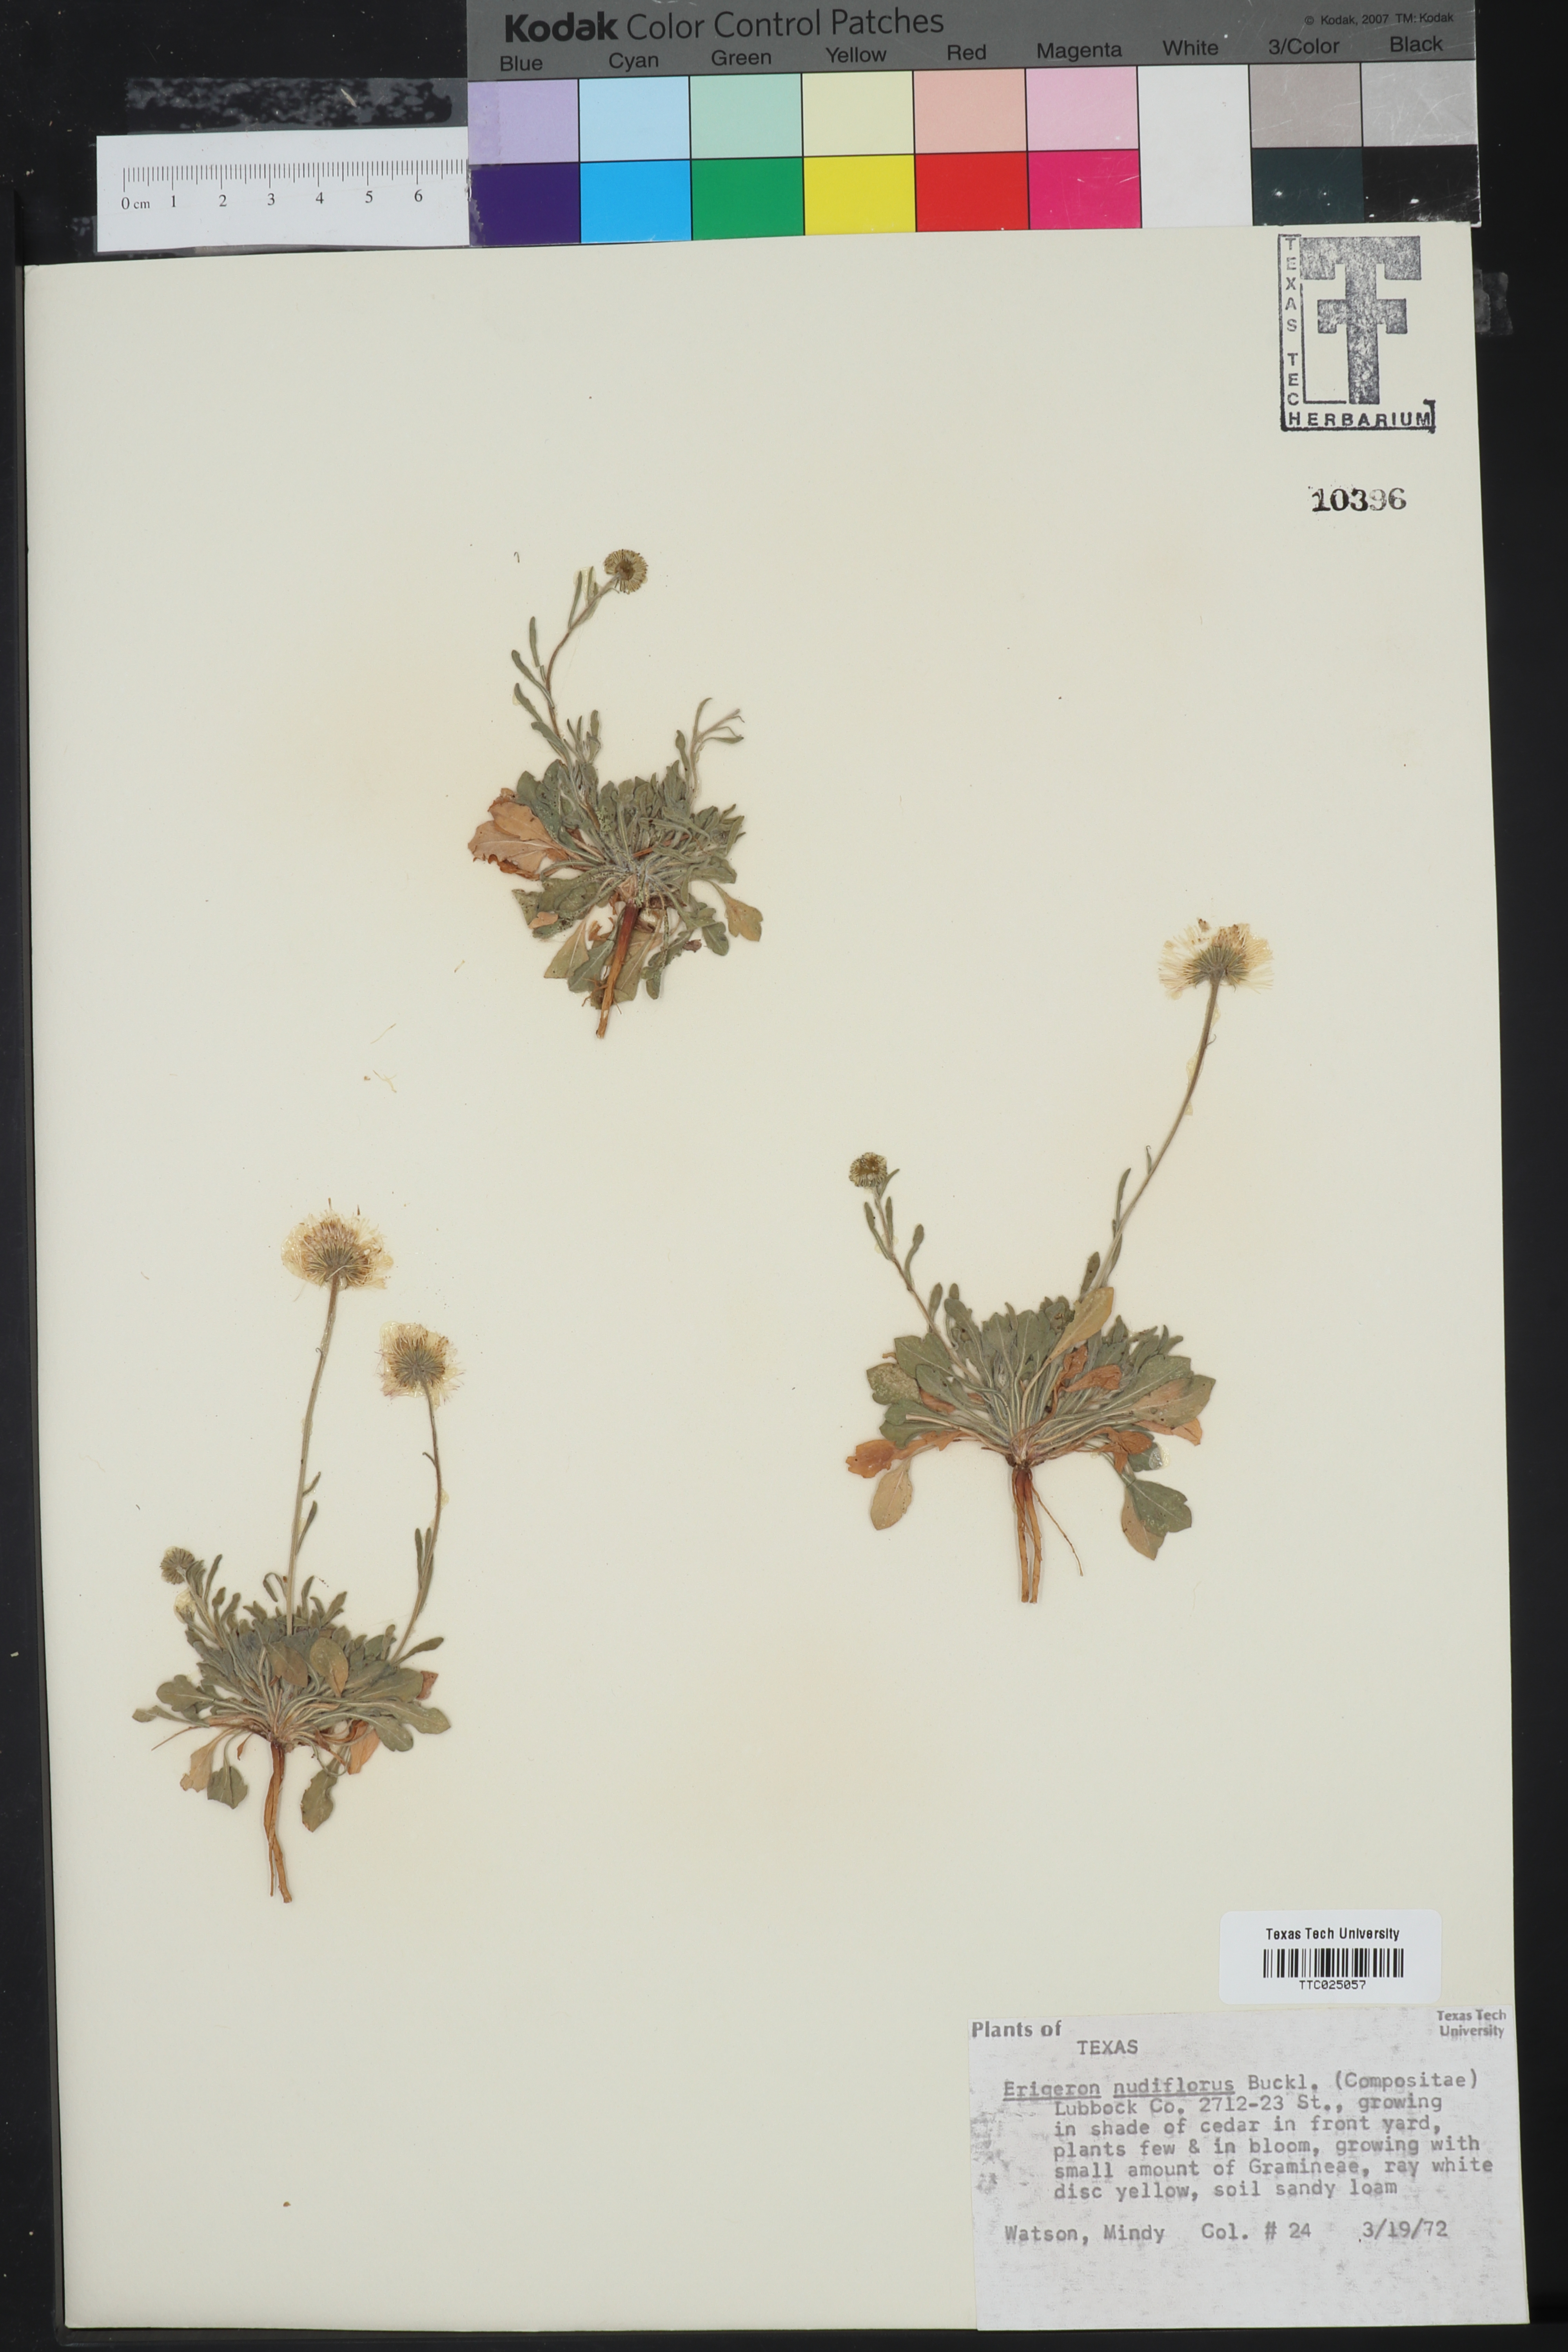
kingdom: Plantae
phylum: Tracheophyta
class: Magnoliopsida
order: Asterales
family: Asteraceae
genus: Erigeron
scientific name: Erigeron flagellaris
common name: Running fleabane
